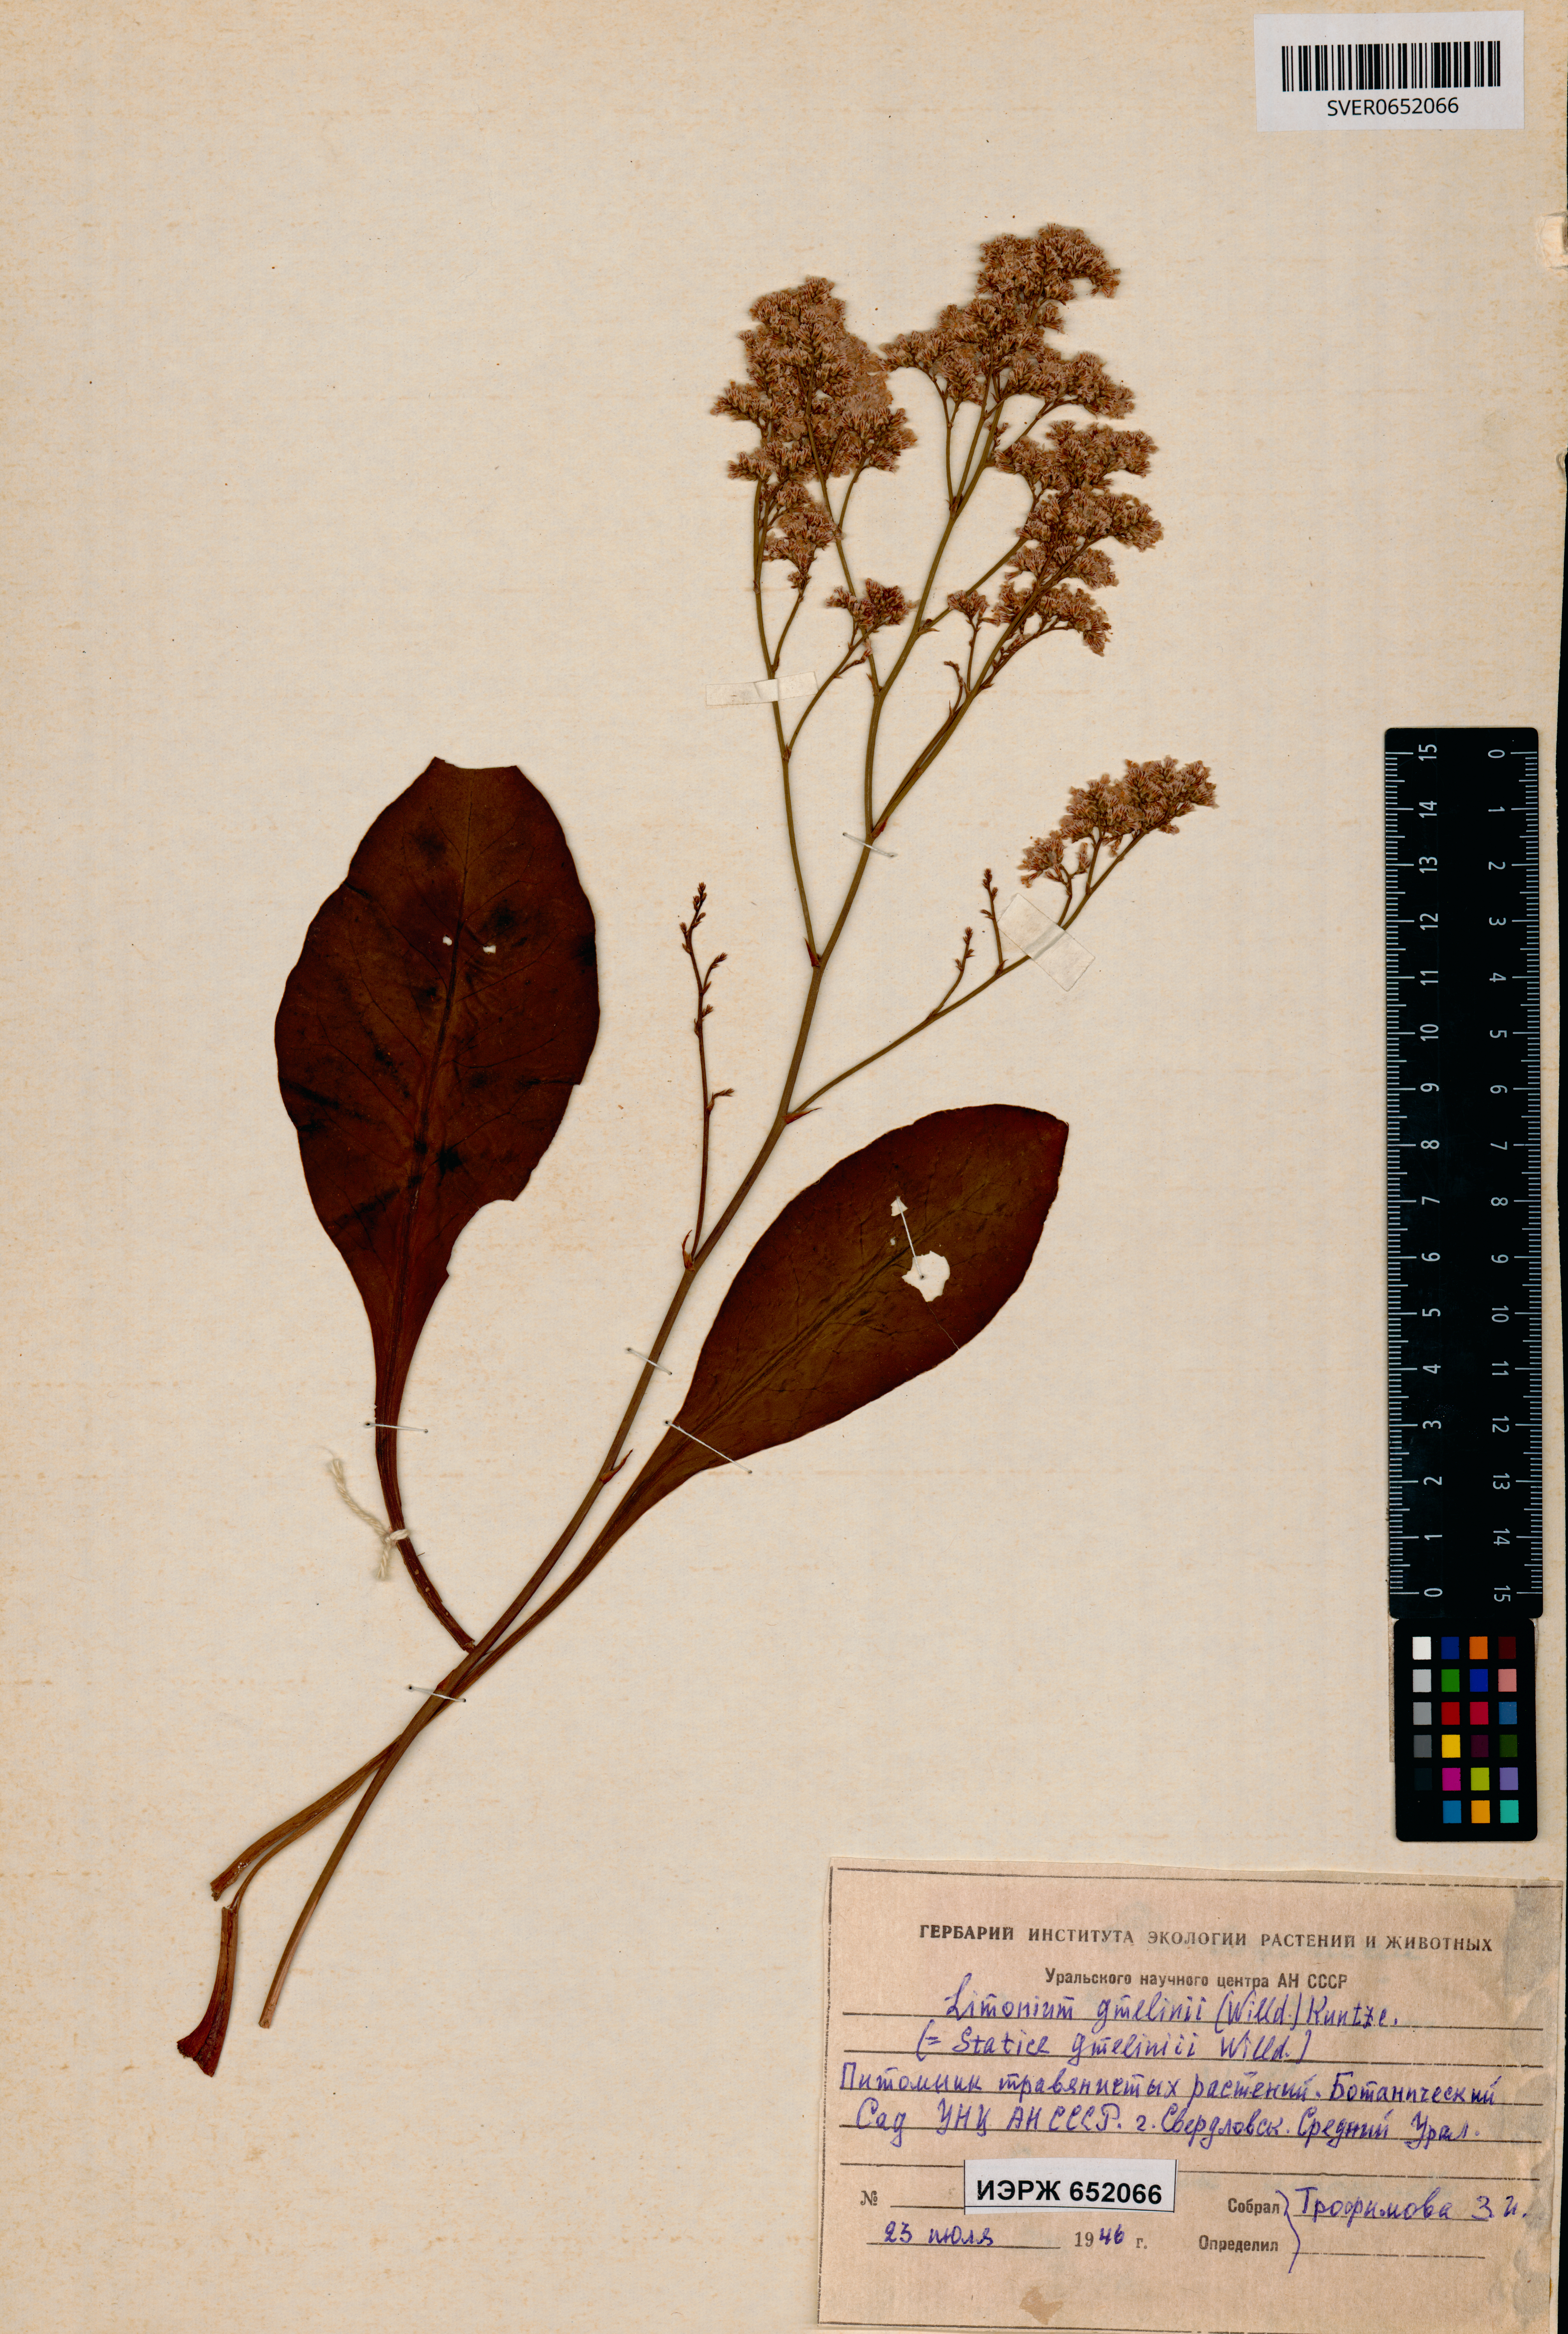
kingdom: Plantae
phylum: Tracheophyta
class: Magnoliopsida
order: Caryophyllales
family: Plumbaginaceae
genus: Limonium
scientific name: Limonium gmelini
